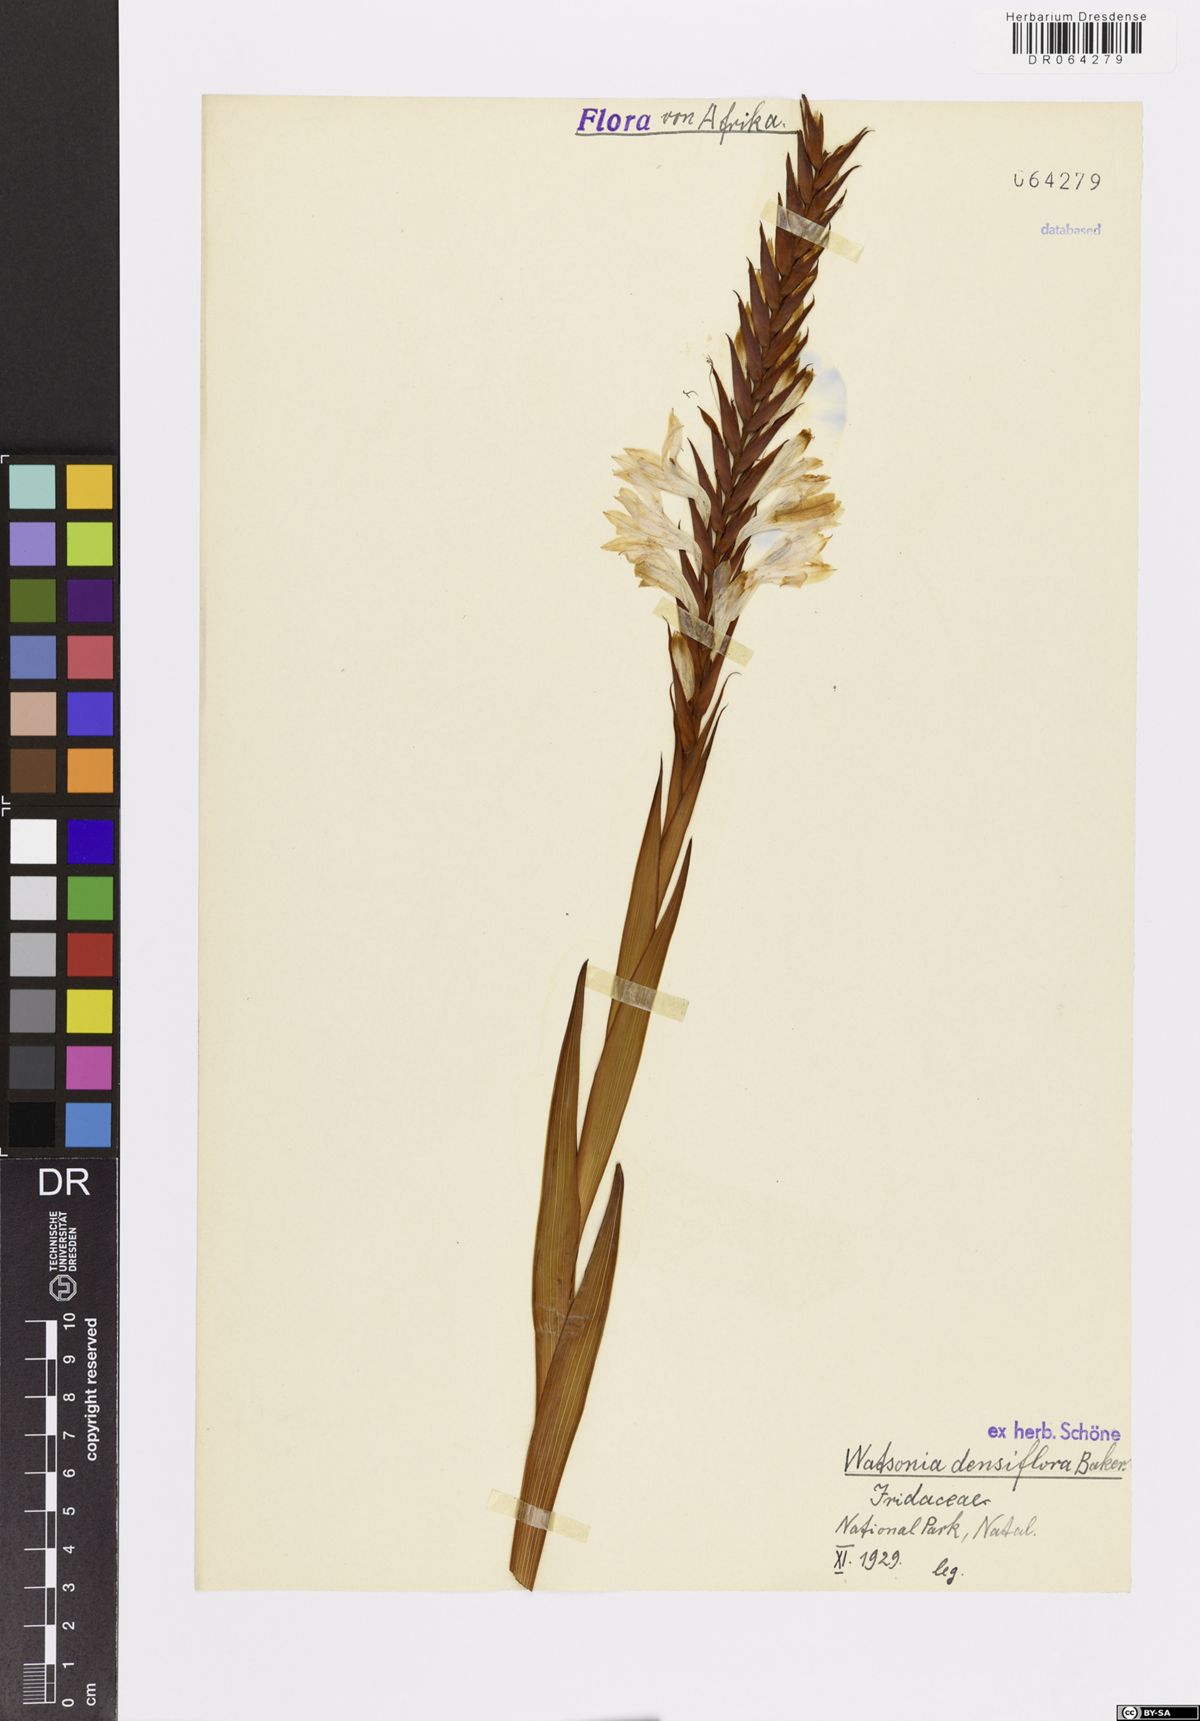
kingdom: Plantae
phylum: Tracheophyta
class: Liliopsida
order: Asparagales
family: Iridaceae
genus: Watsonia
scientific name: Watsonia densiflora
